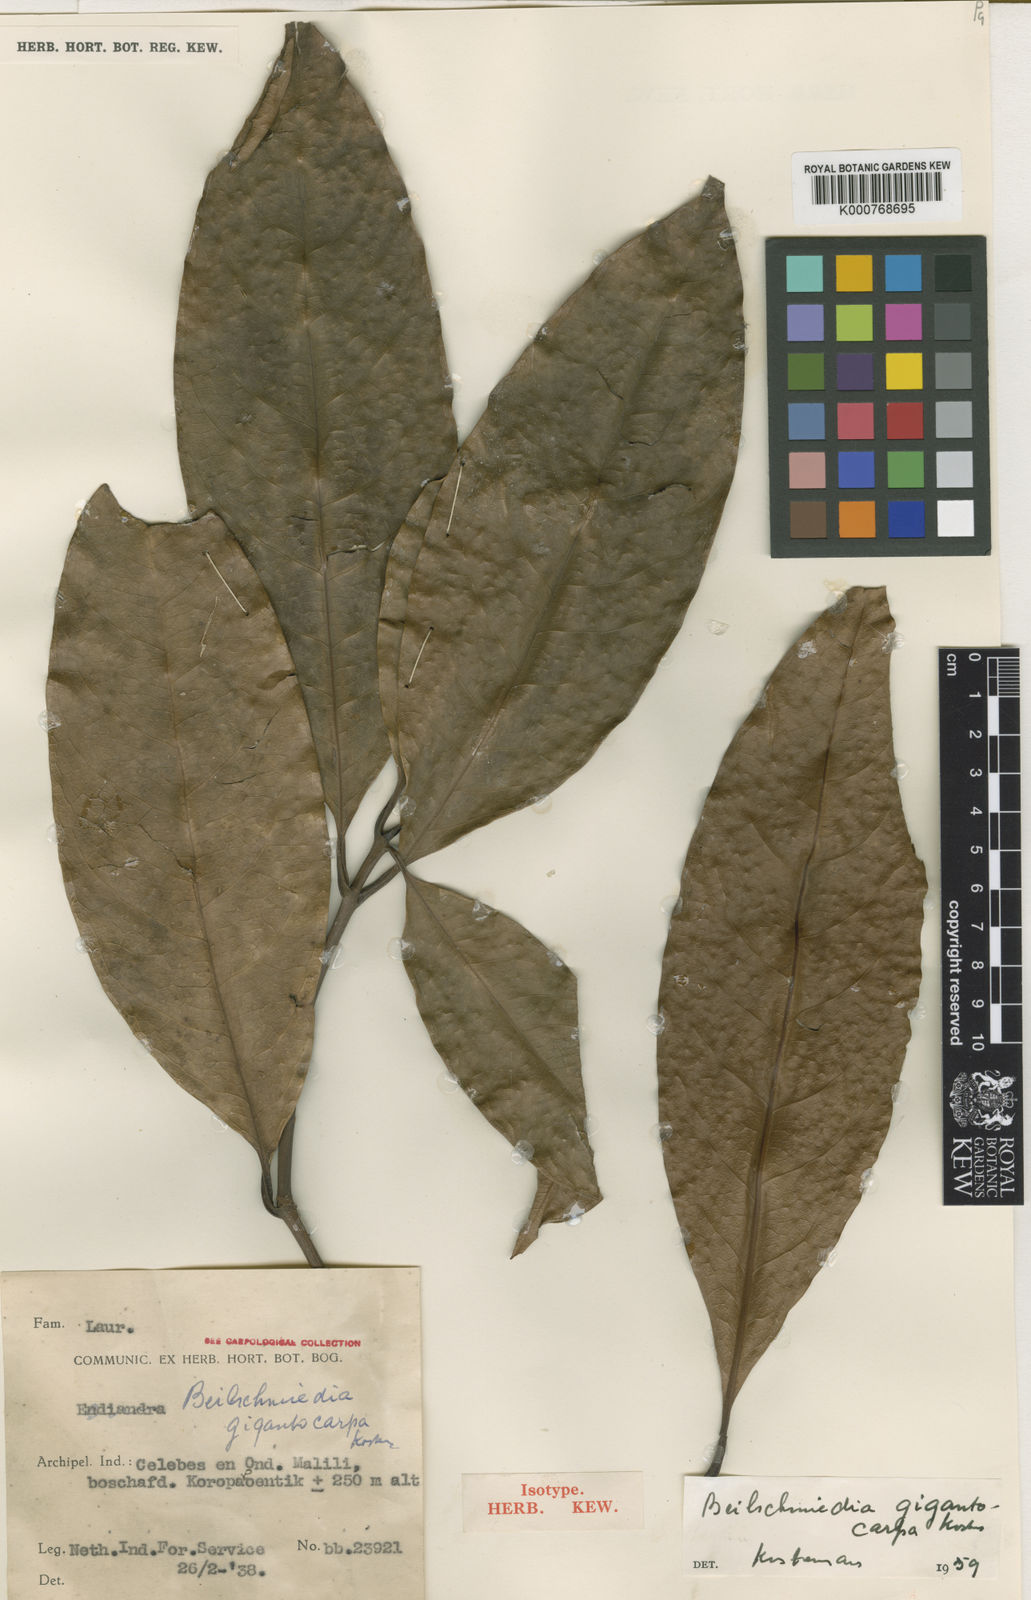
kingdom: Plantae
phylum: Tracheophyta
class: Magnoliopsida
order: Laurales
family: Lauraceae
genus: Beilschmiedia
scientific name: Beilschmiedia gigantocarpa
